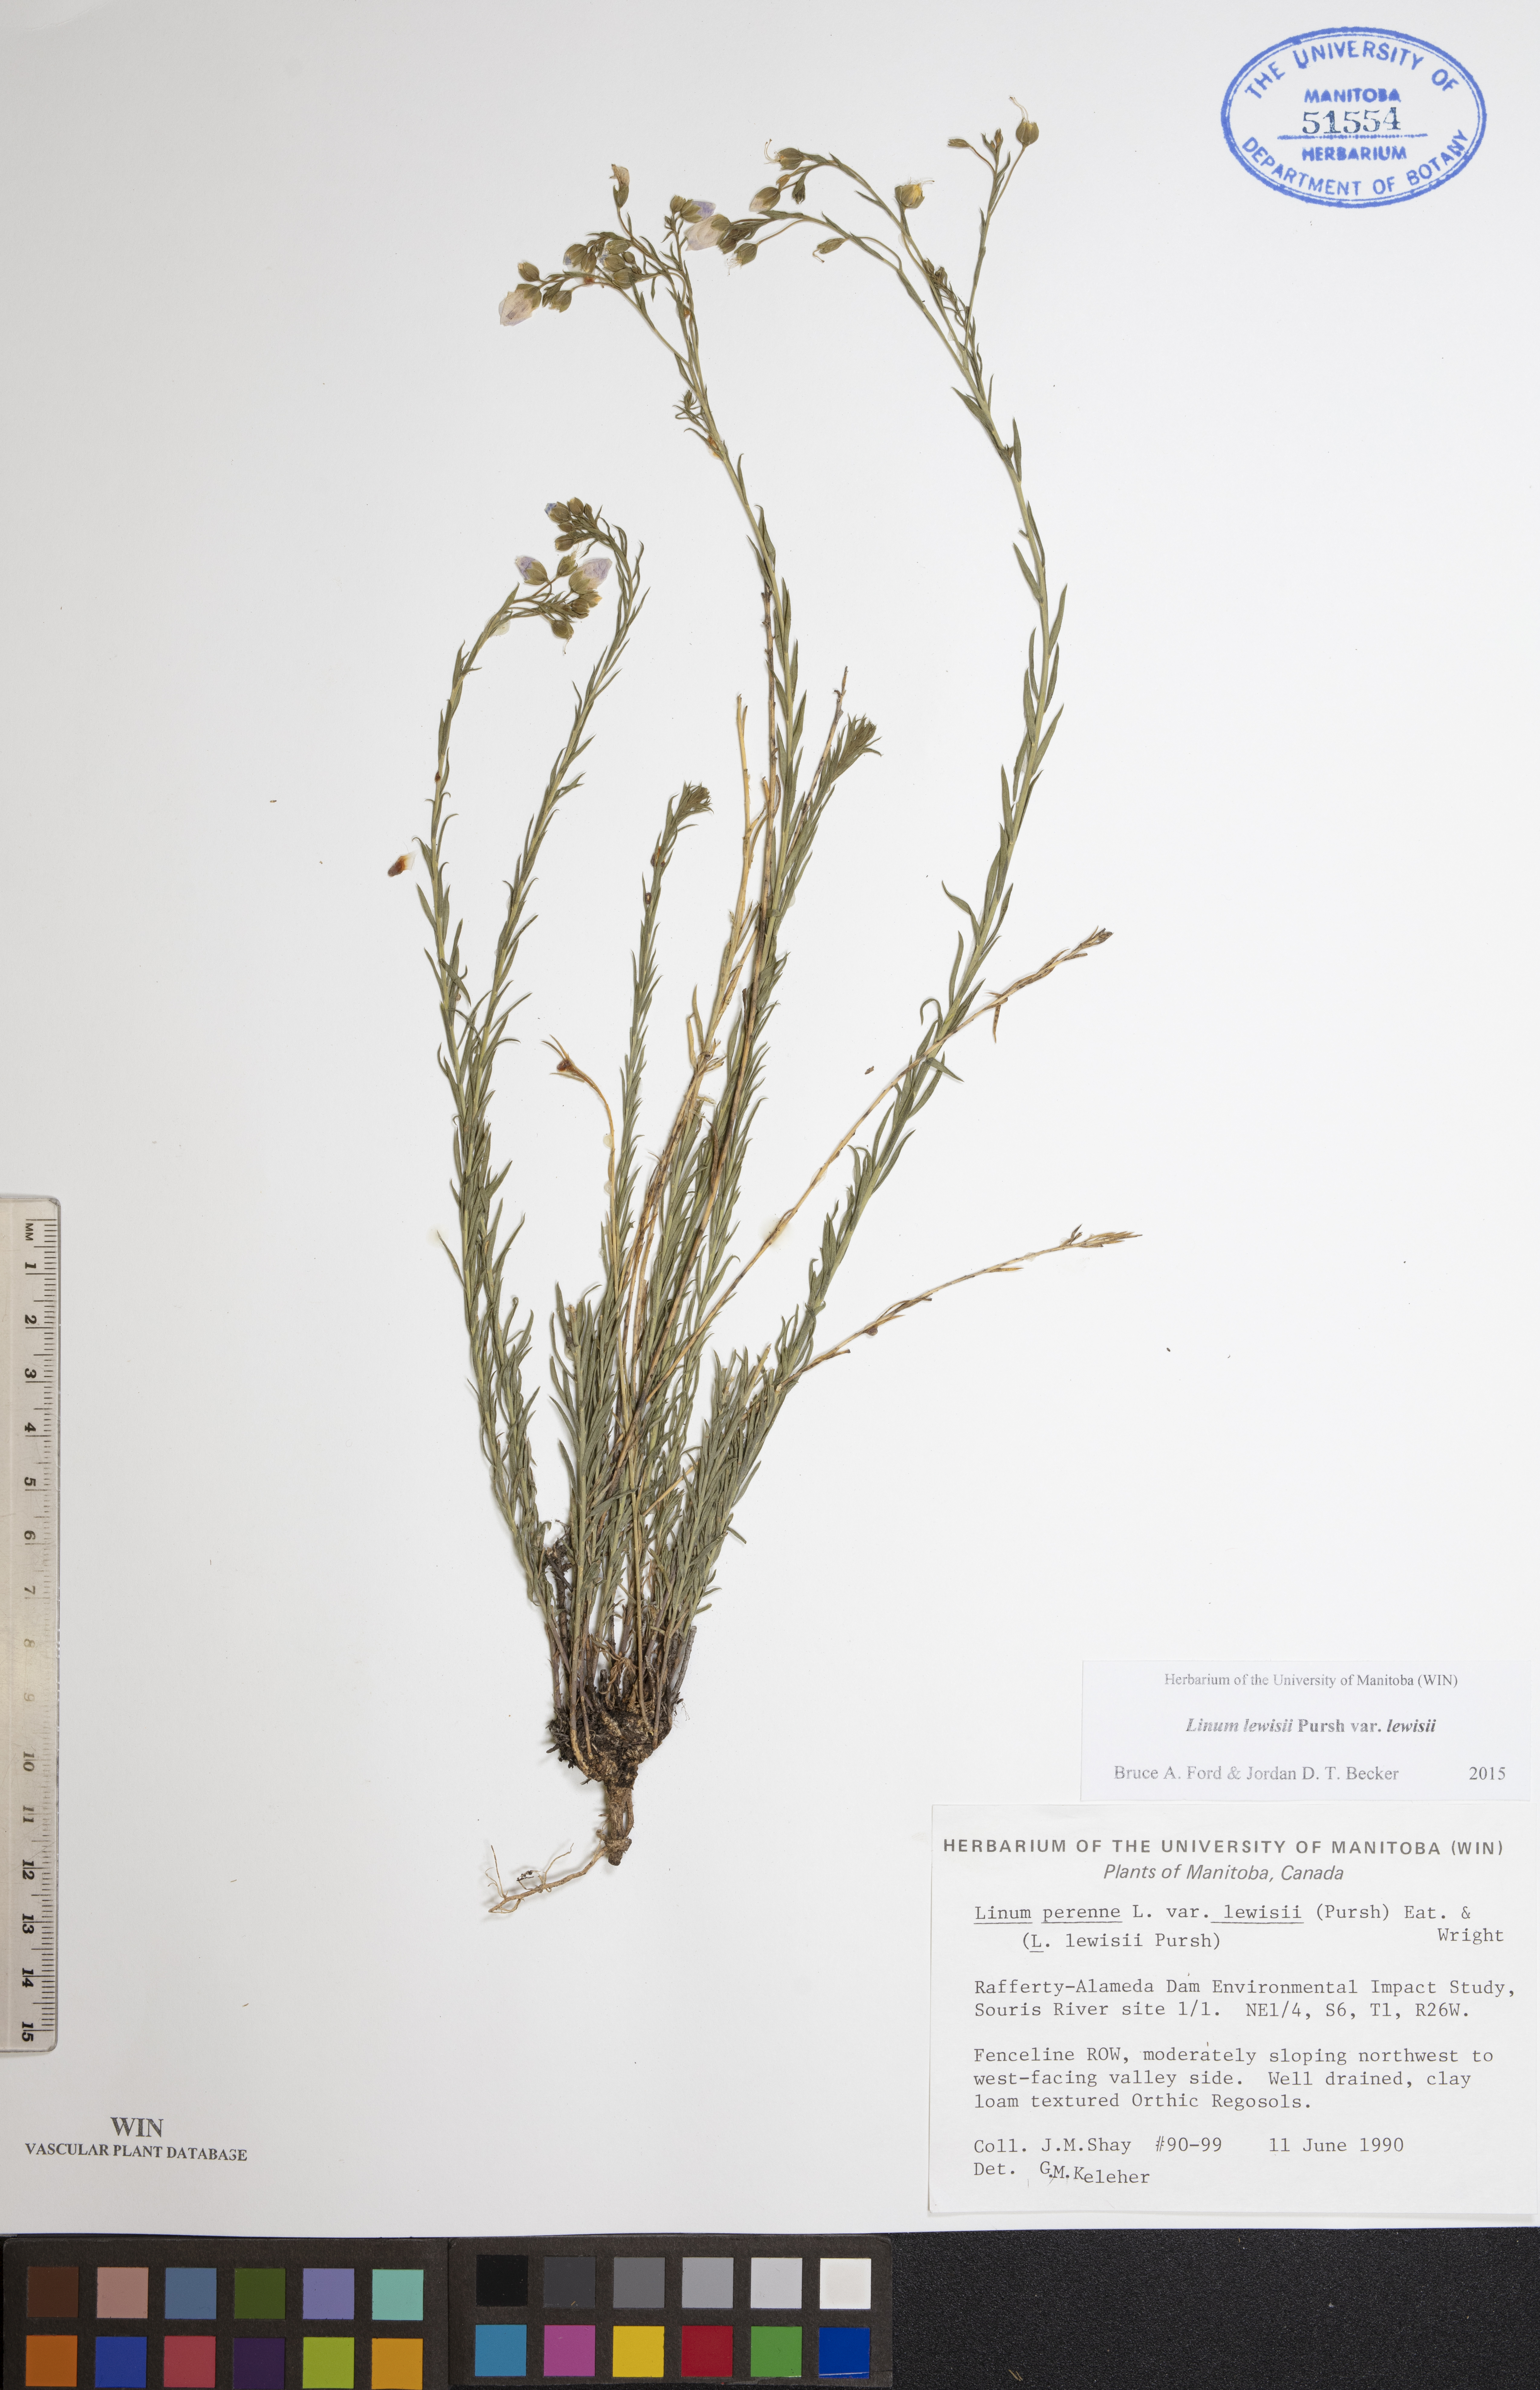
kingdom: Plantae
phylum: Tracheophyta
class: Magnoliopsida
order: Malpighiales
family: Linaceae
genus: Linum
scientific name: Linum lewisii
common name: Prairie flax
